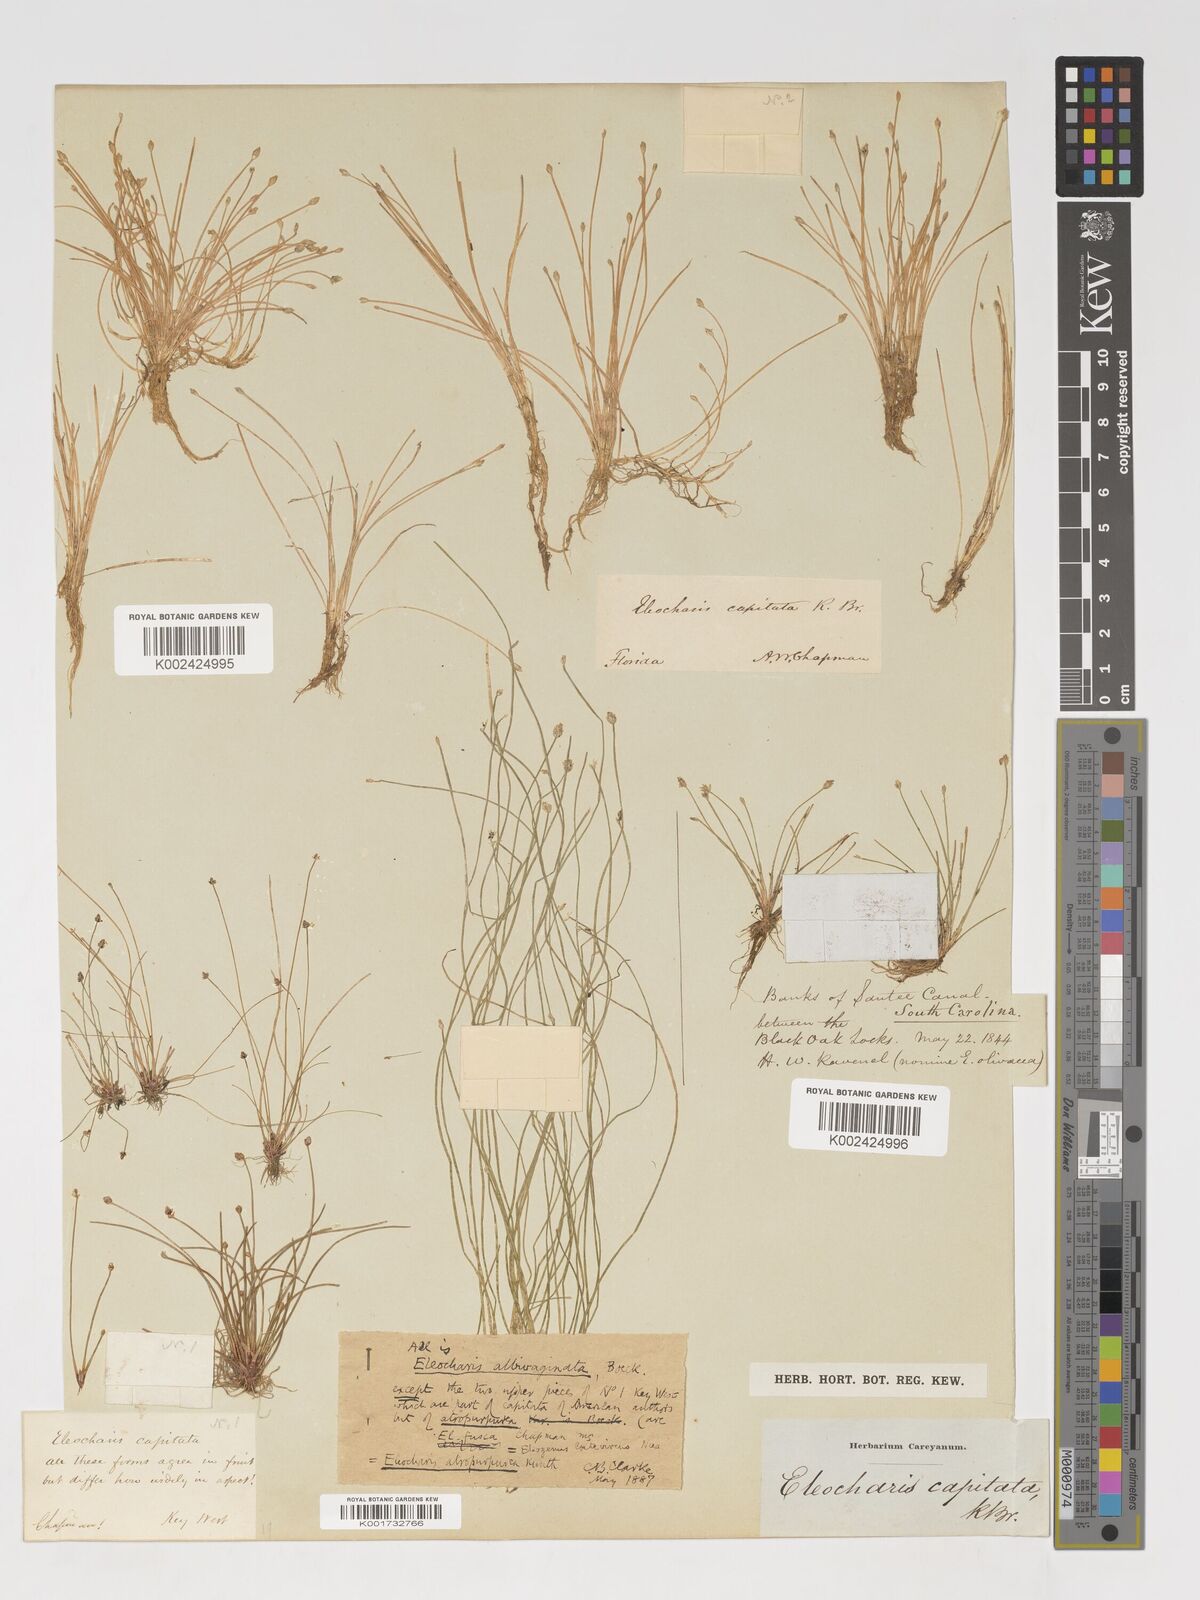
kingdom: Plantae
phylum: Tracheophyta
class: Liliopsida
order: Poales
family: Cyperaceae
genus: Eleocharis
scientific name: Eleocharis flavescens
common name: Yellow spikerush
